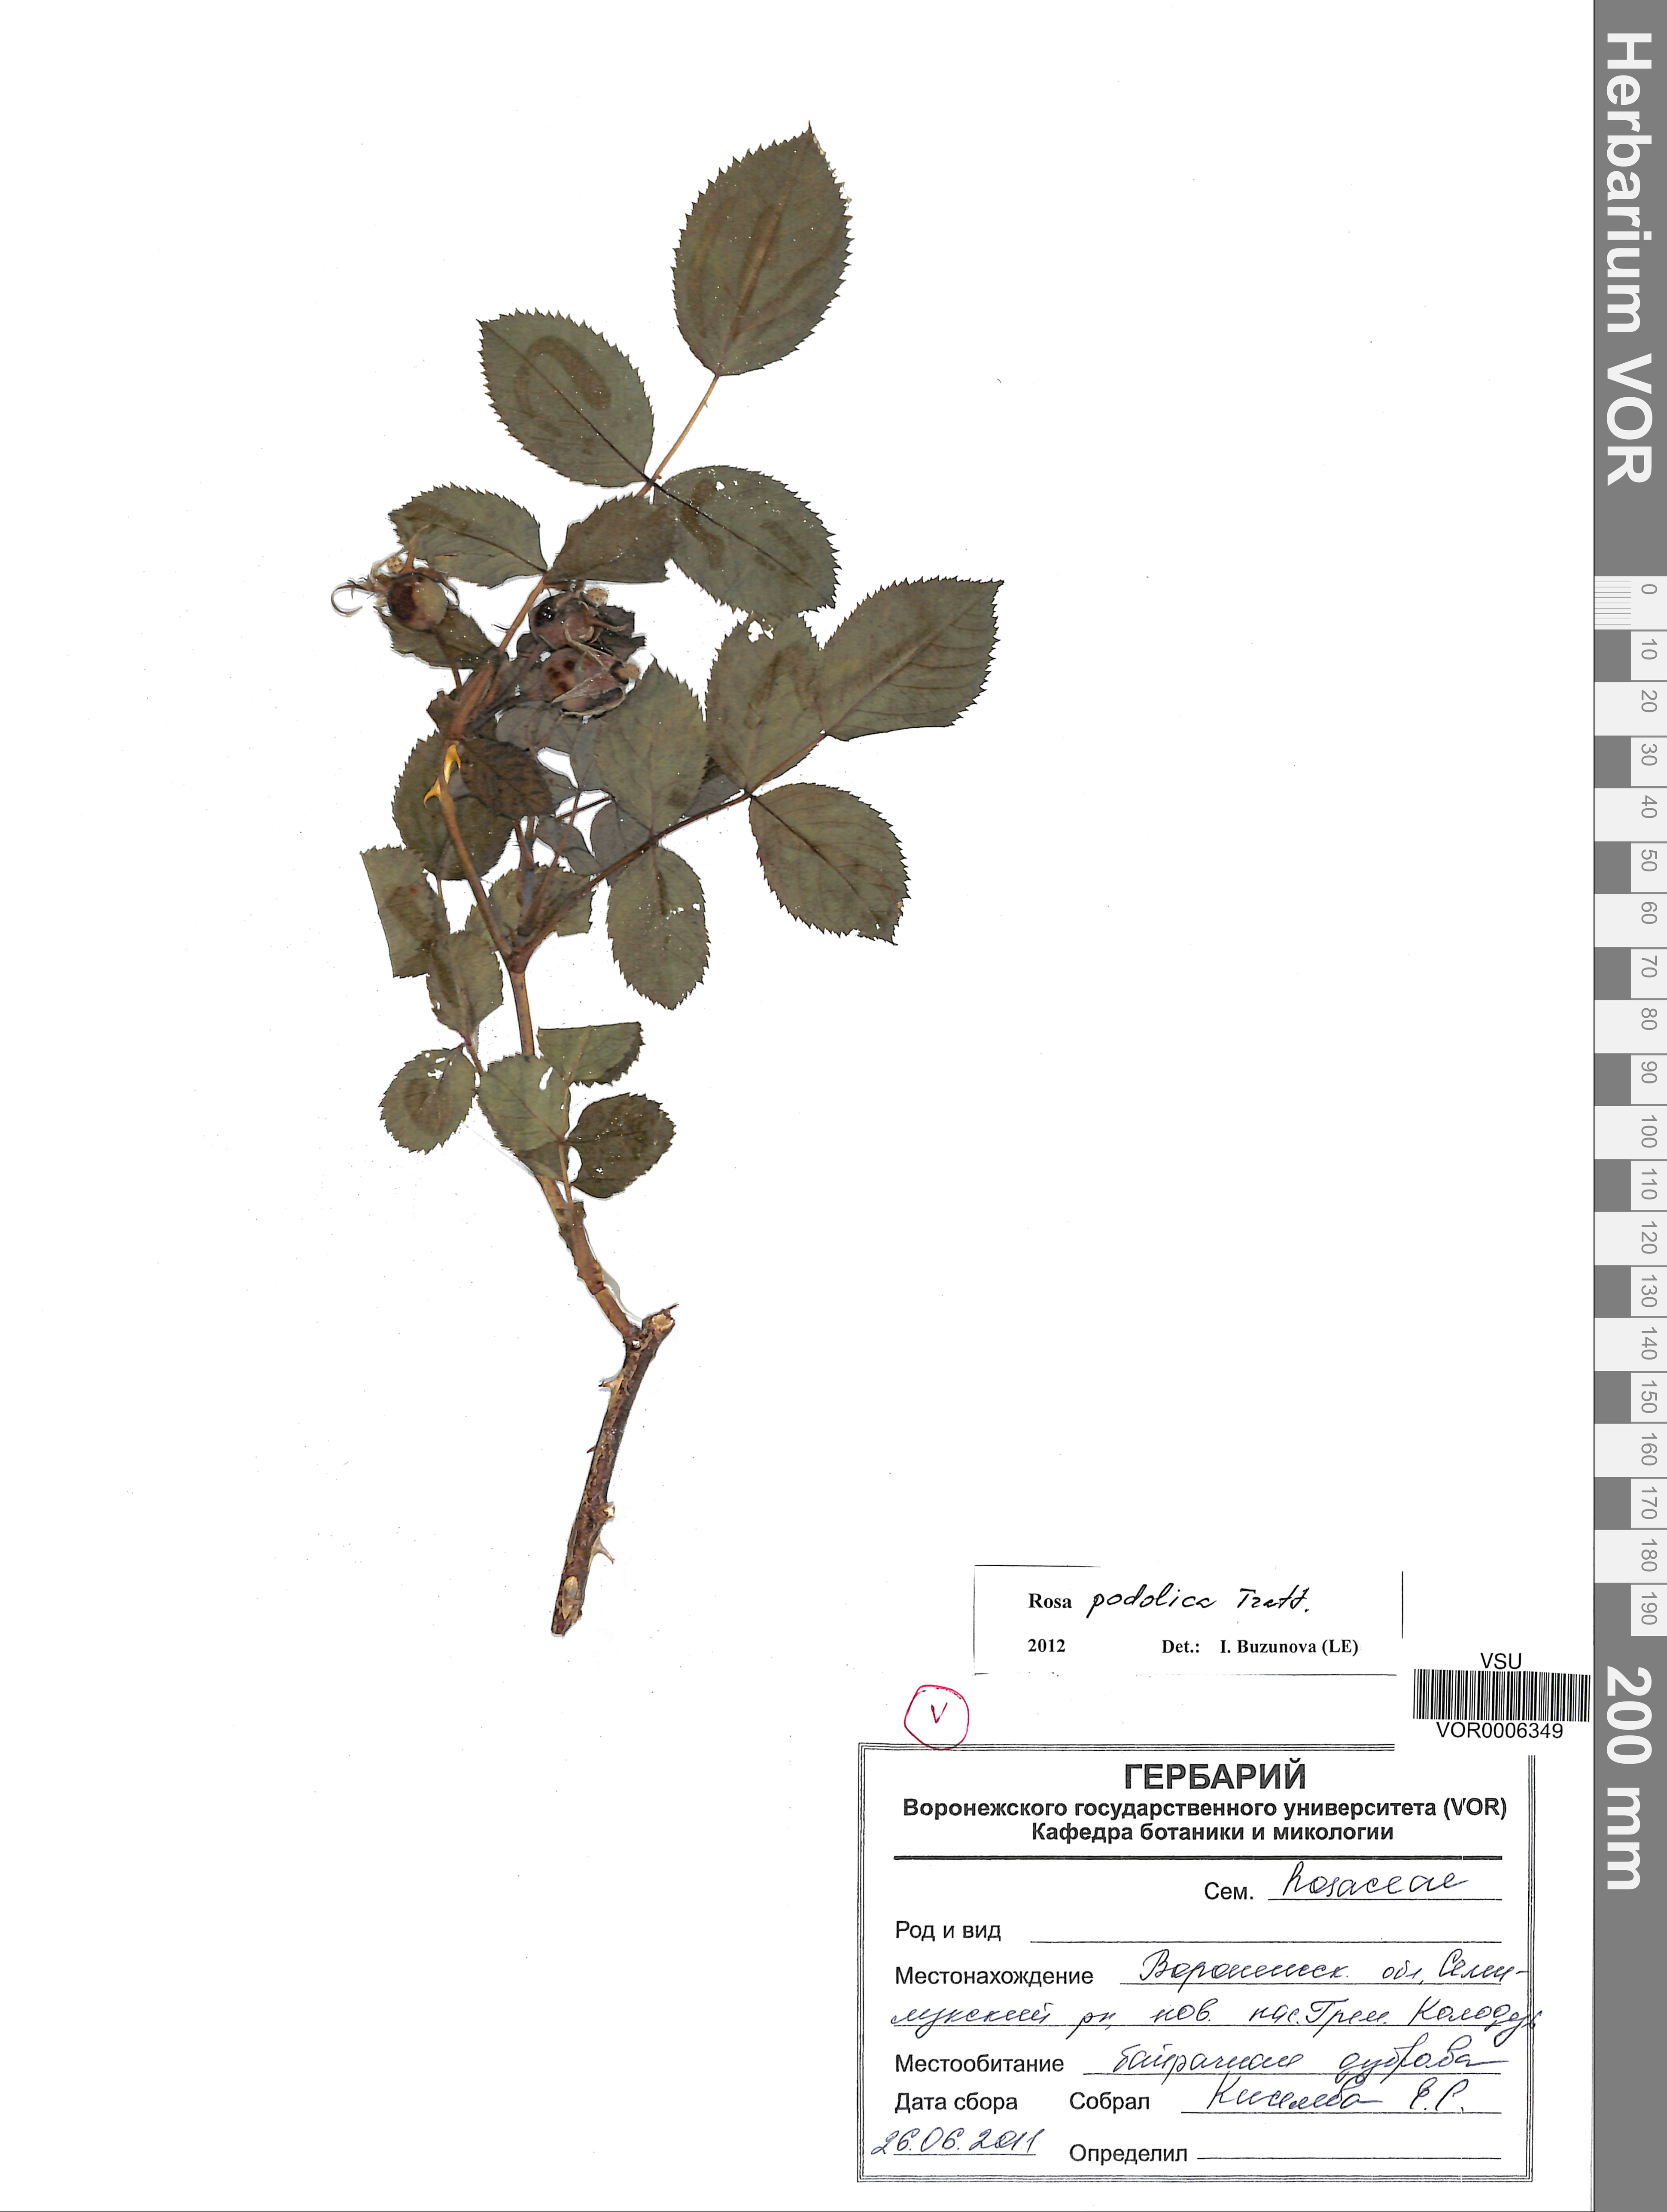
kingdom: Plantae
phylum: Tracheophyta
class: Magnoliopsida
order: Rosales
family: Rosaceae
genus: Rosa
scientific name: Rosa tomentosa
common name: Downy rose
